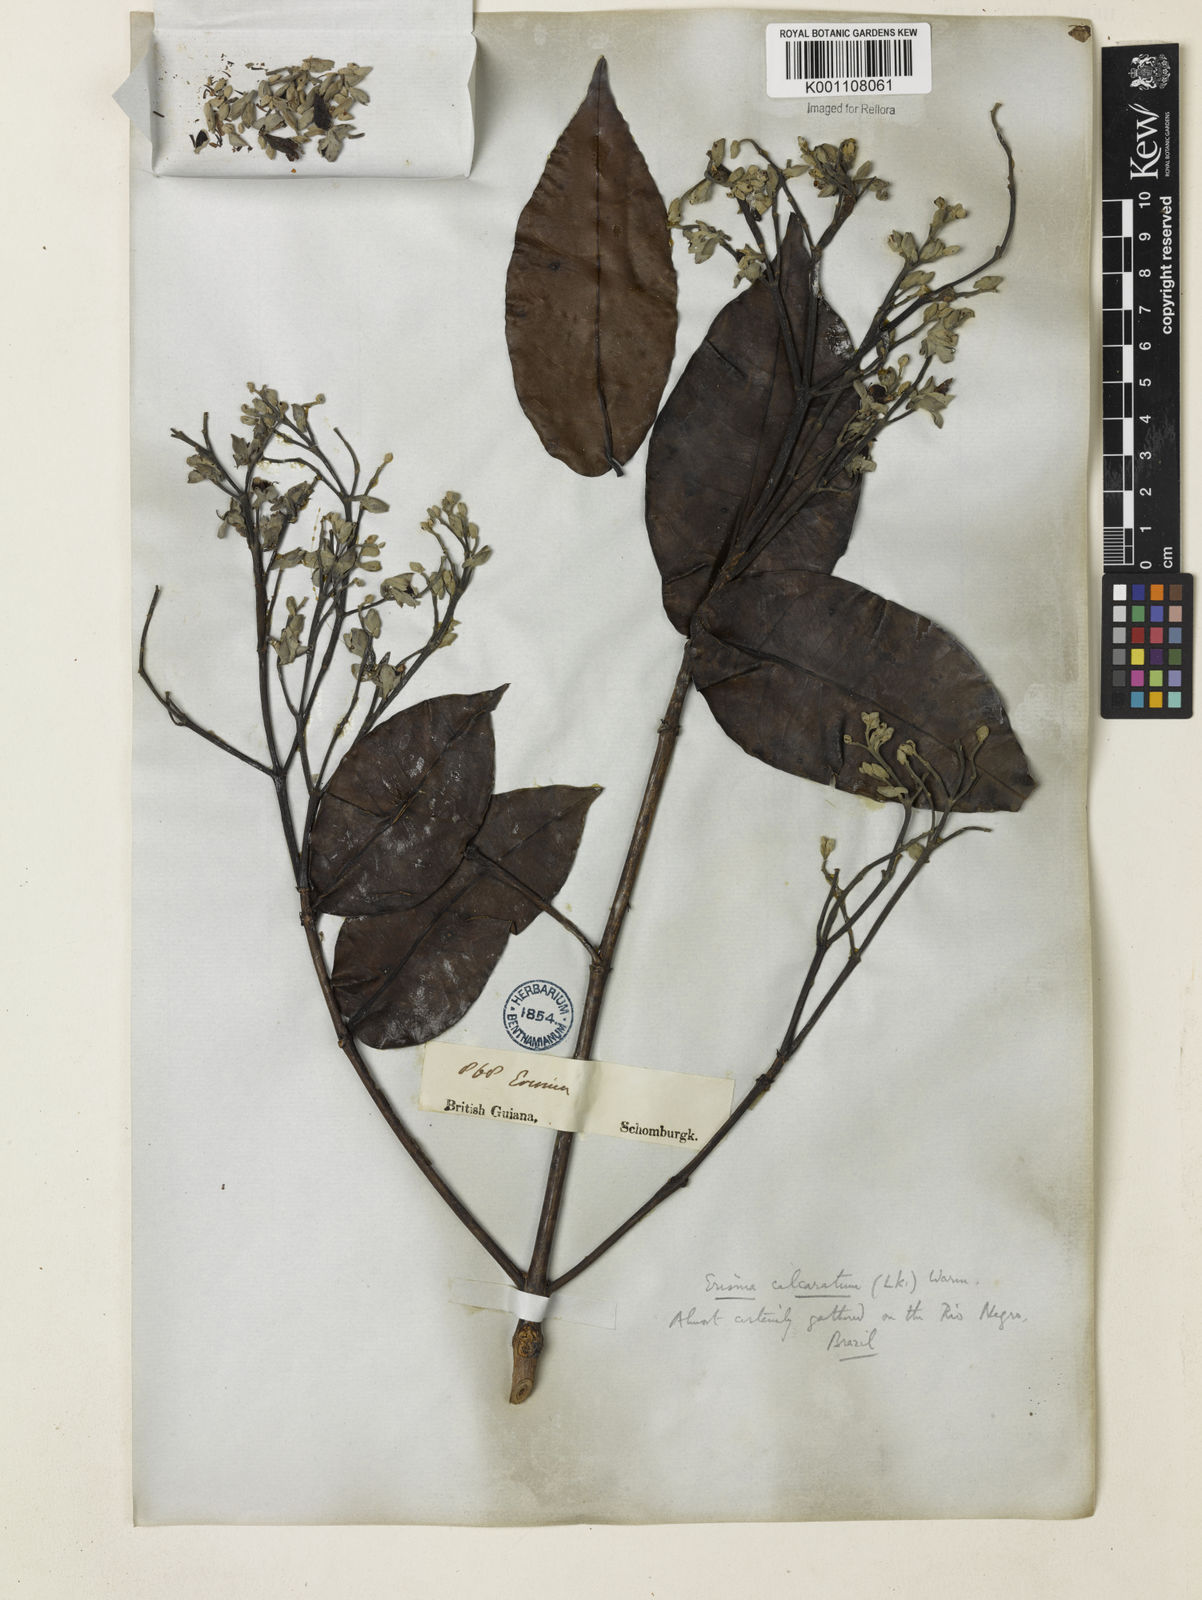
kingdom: Plantae
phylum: Tracheophyta
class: Magnoliopsida
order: Myrtales
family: Vochysiaceae
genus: Erisma
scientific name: Erisma calcaratum
